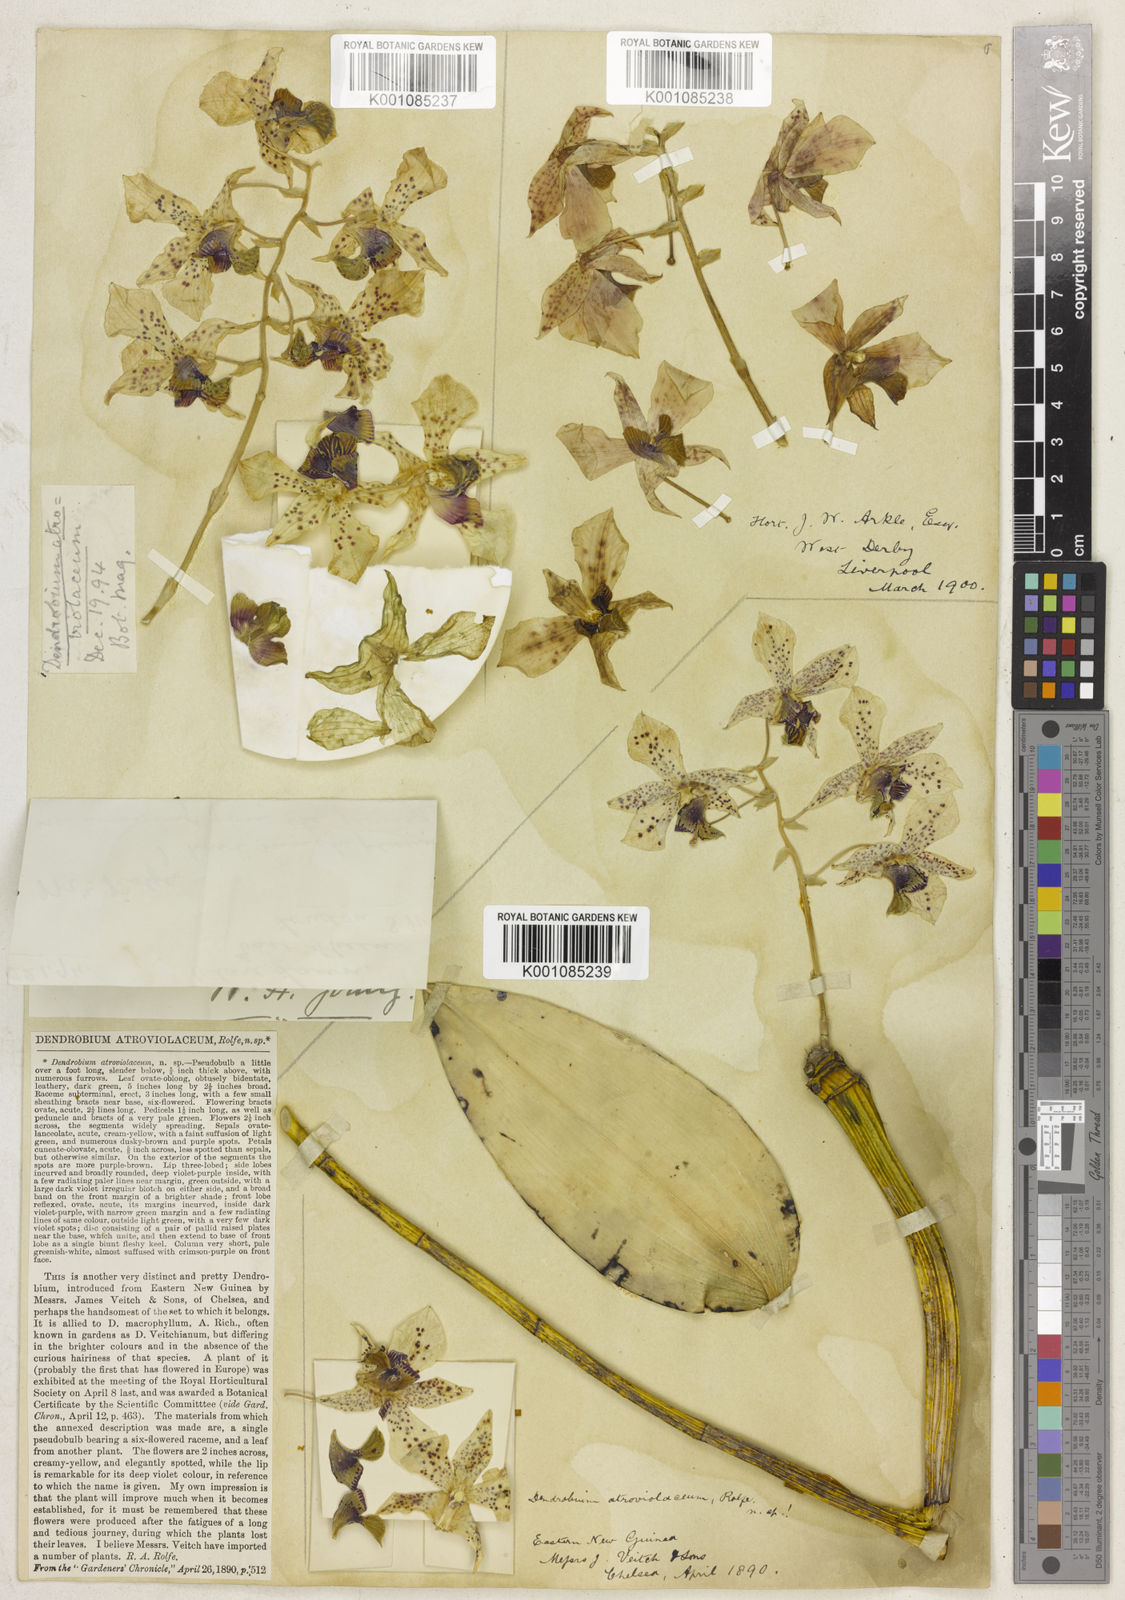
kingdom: Plantae
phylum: Tracheophyta
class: Liliopsida
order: Asparagales
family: Orchidaceae
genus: Dendrobium
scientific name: Dendrobium atroviolaceum
